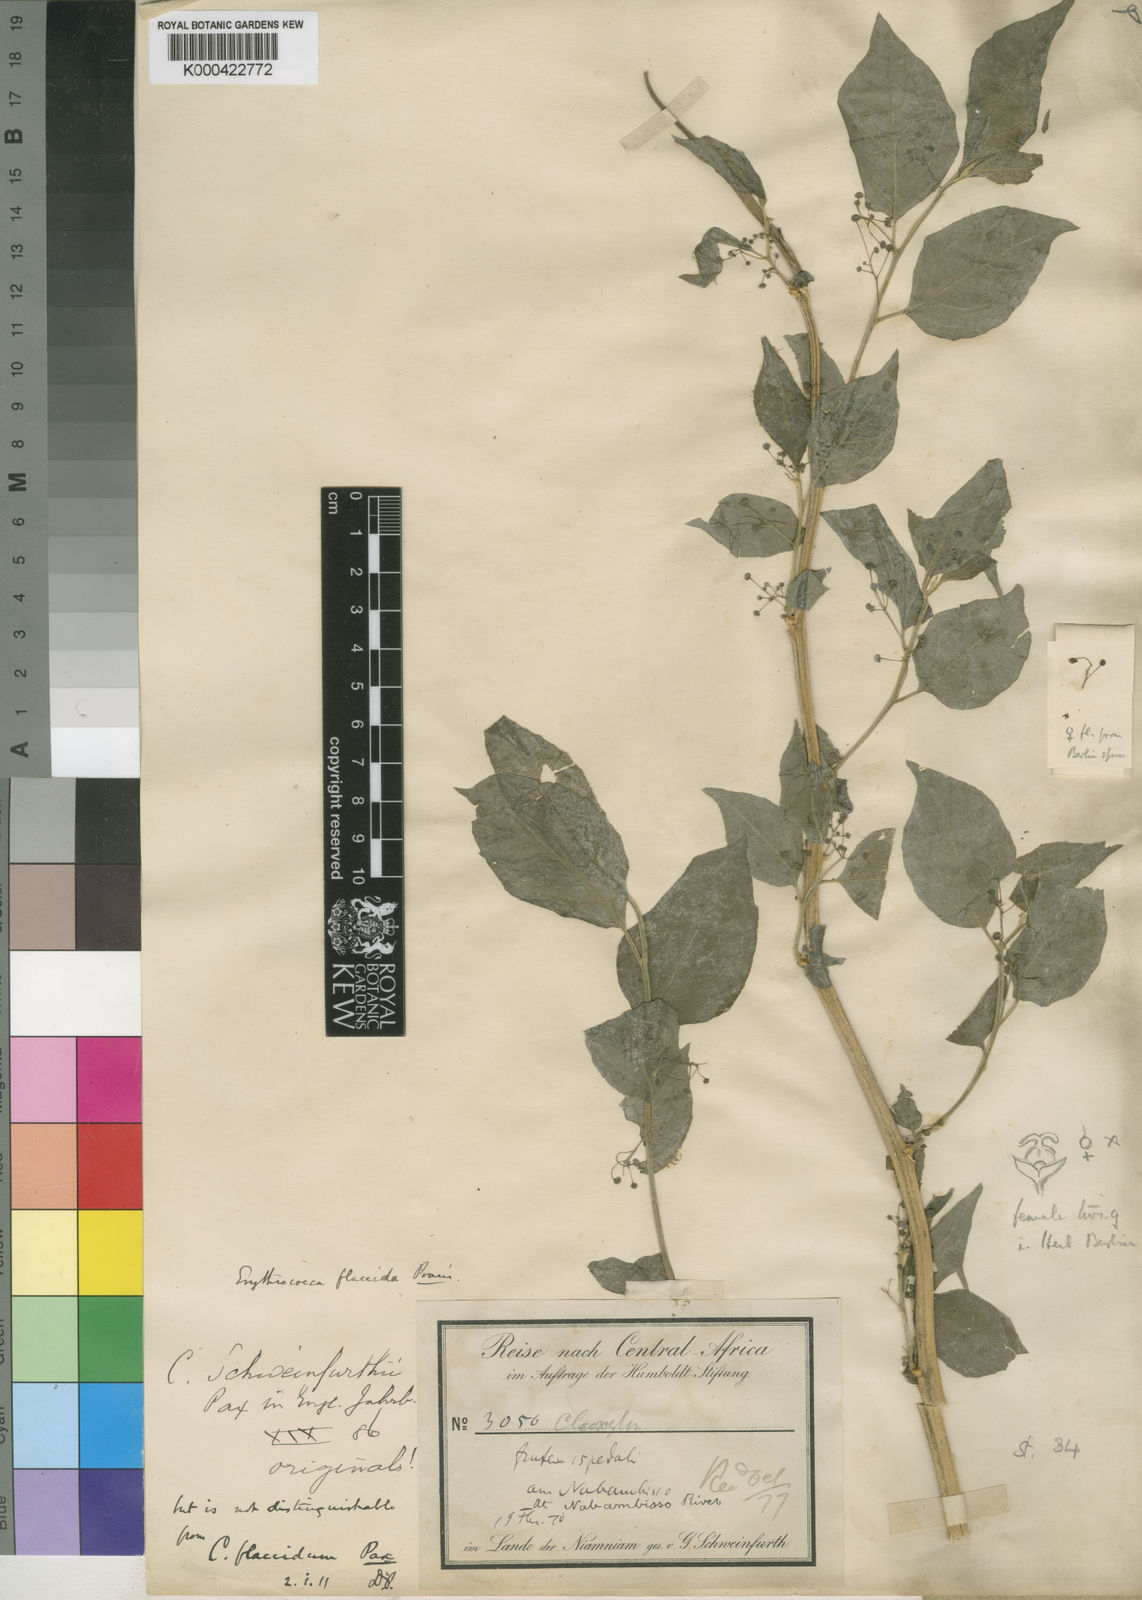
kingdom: Plantae
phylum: Tracheophyta
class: Magnoliopsida
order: Malpighiales
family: Euphorbiaceae
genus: Erythrococca
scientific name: Erythrococca atrovirens
